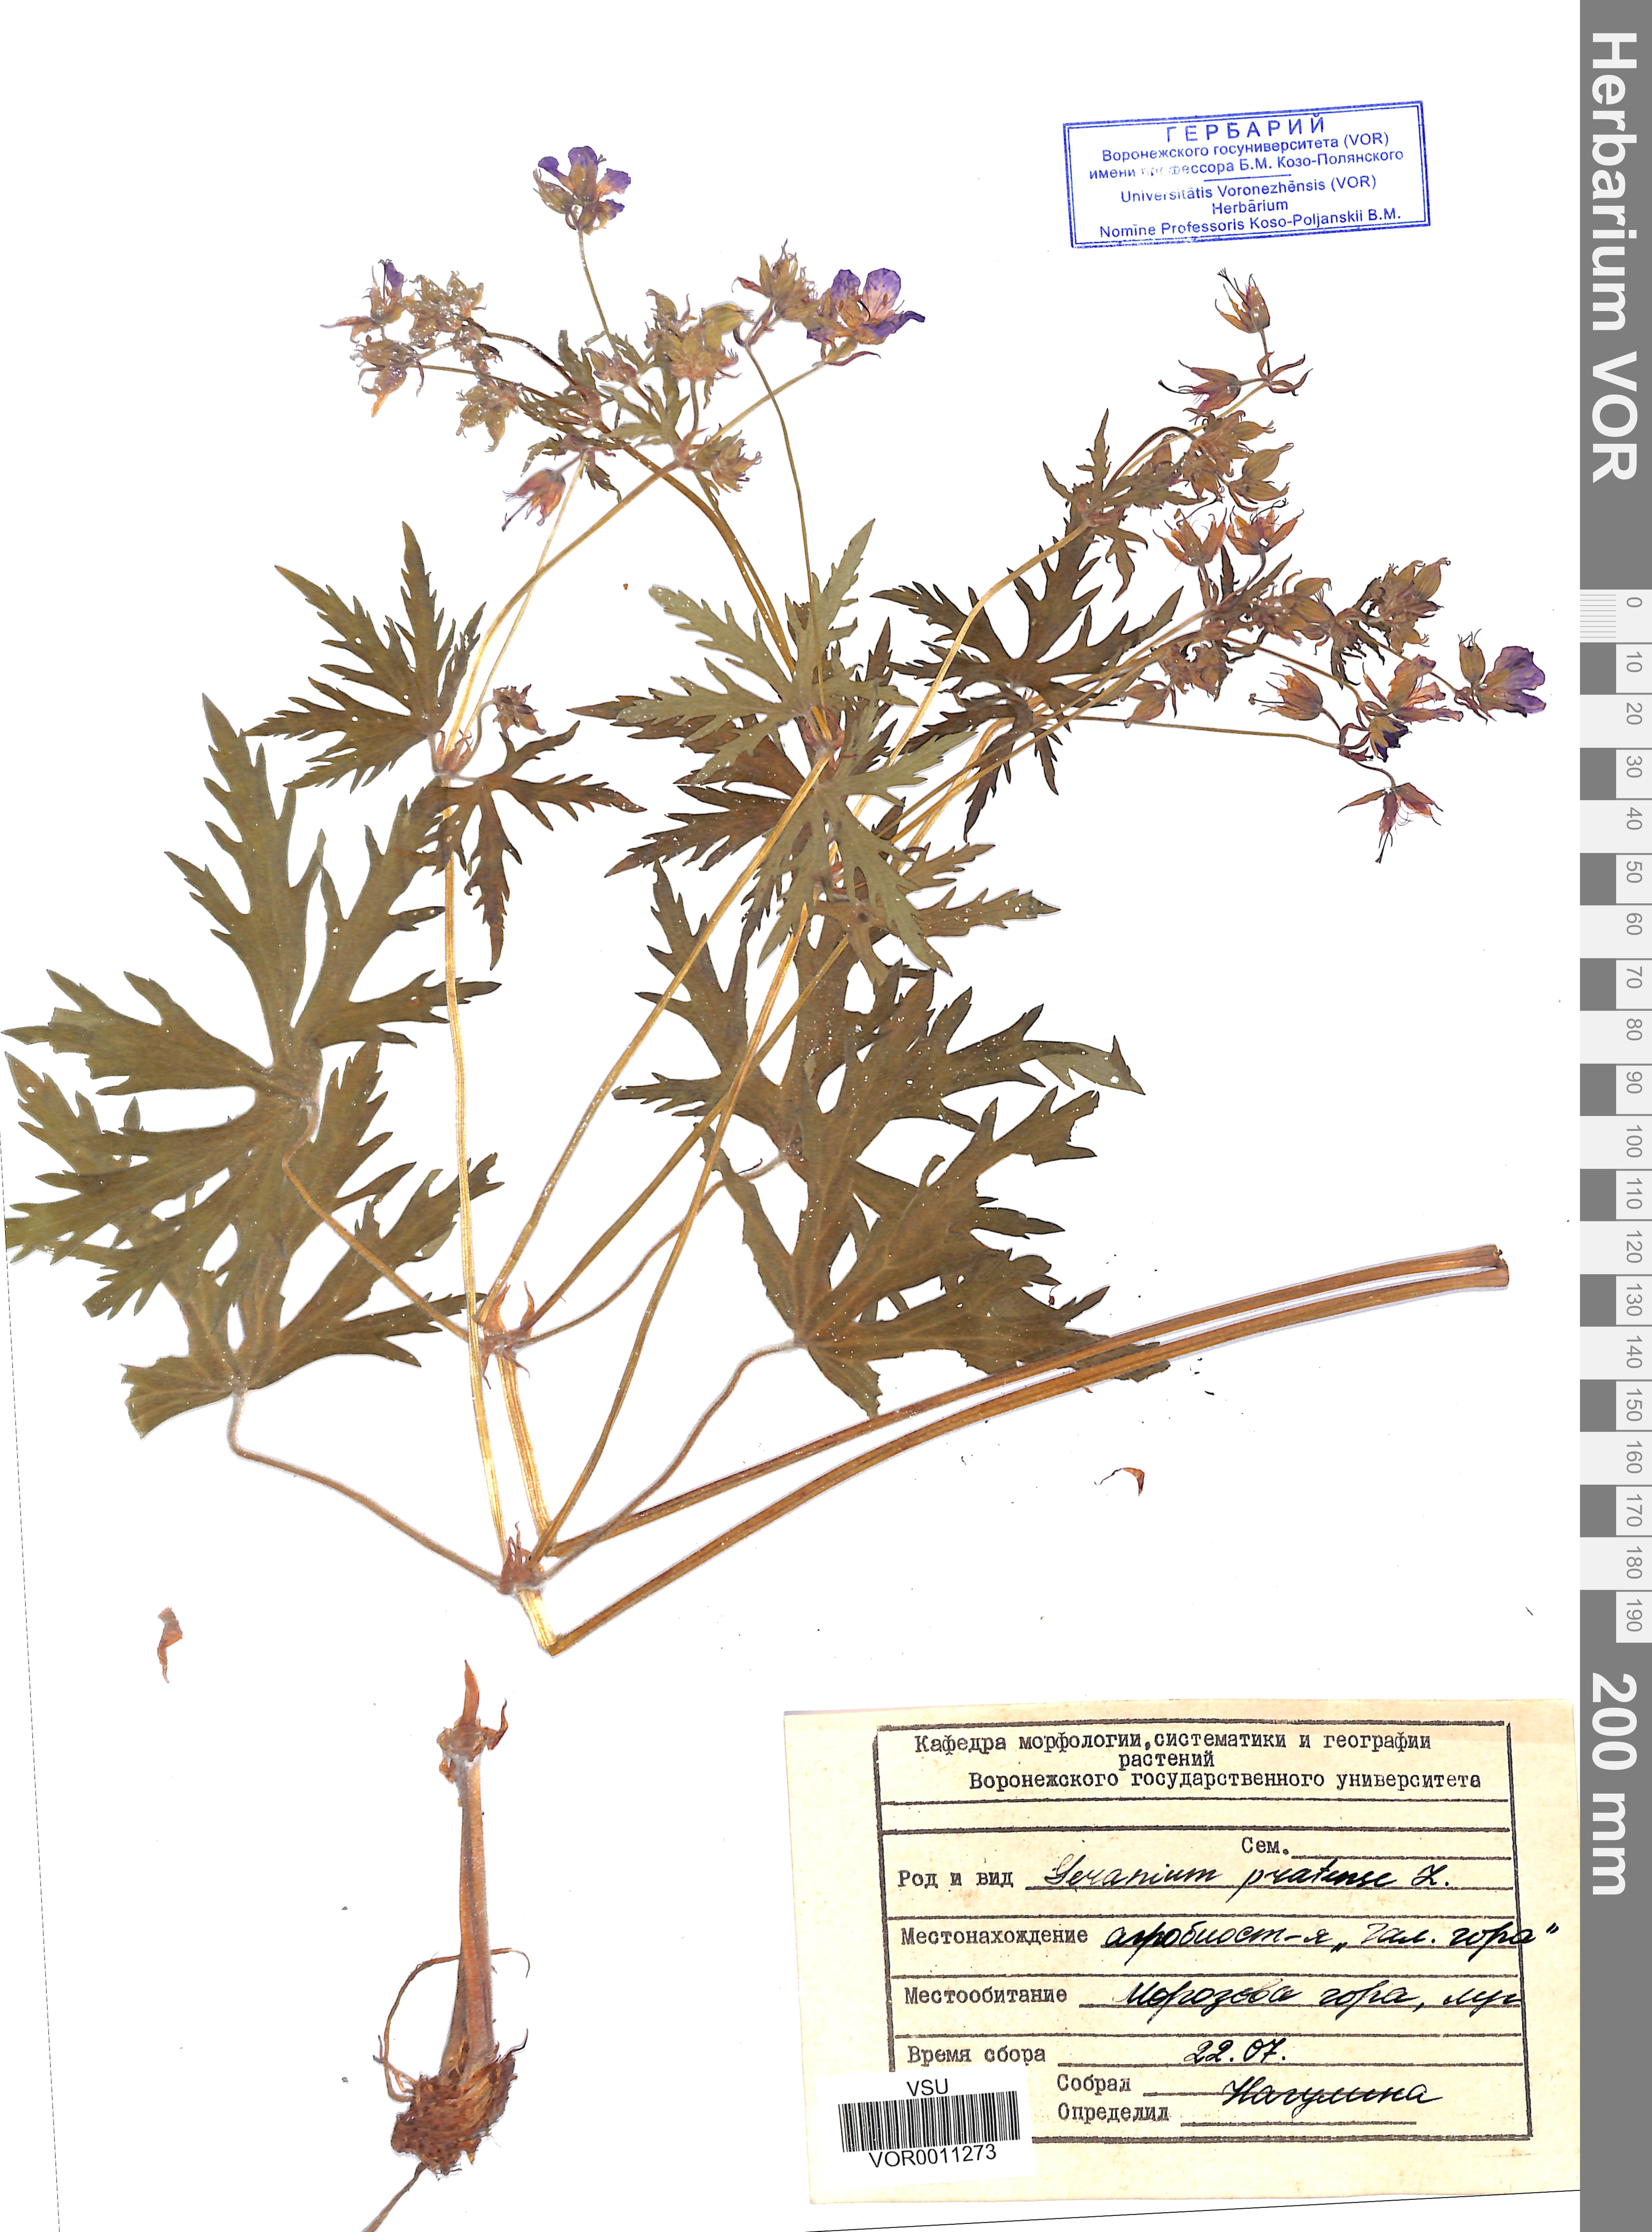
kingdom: Plantae
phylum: Tracheophyta
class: Magnoliopsida
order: Geraniales
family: Geraniaceae
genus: Geranium
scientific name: Geranium pratense
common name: Meadow crane's-bill
